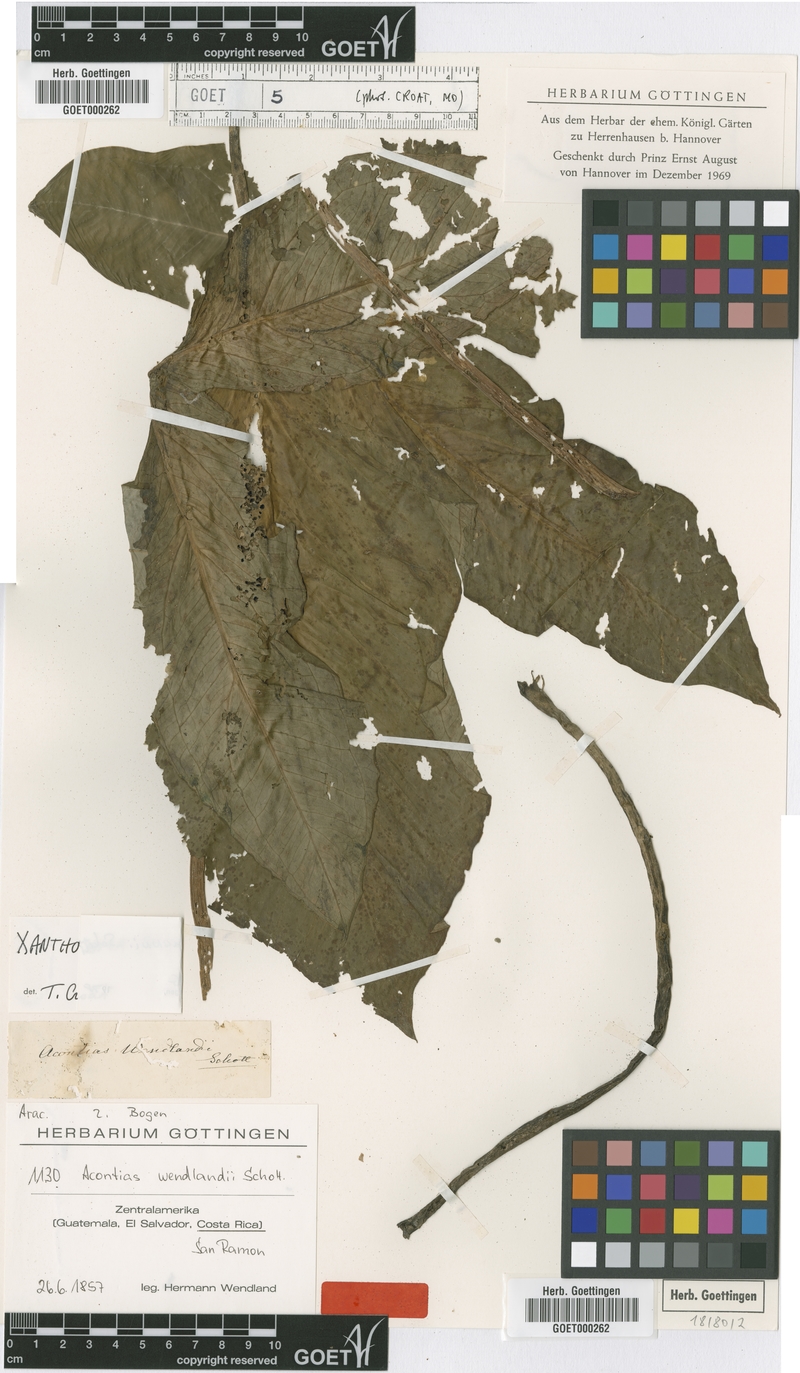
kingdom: Plantae
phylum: Tracheophyta
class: Liliopsida
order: Alismatales
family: Araceae
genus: Xanthosoma
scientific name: Xanthosoma wendlandii
